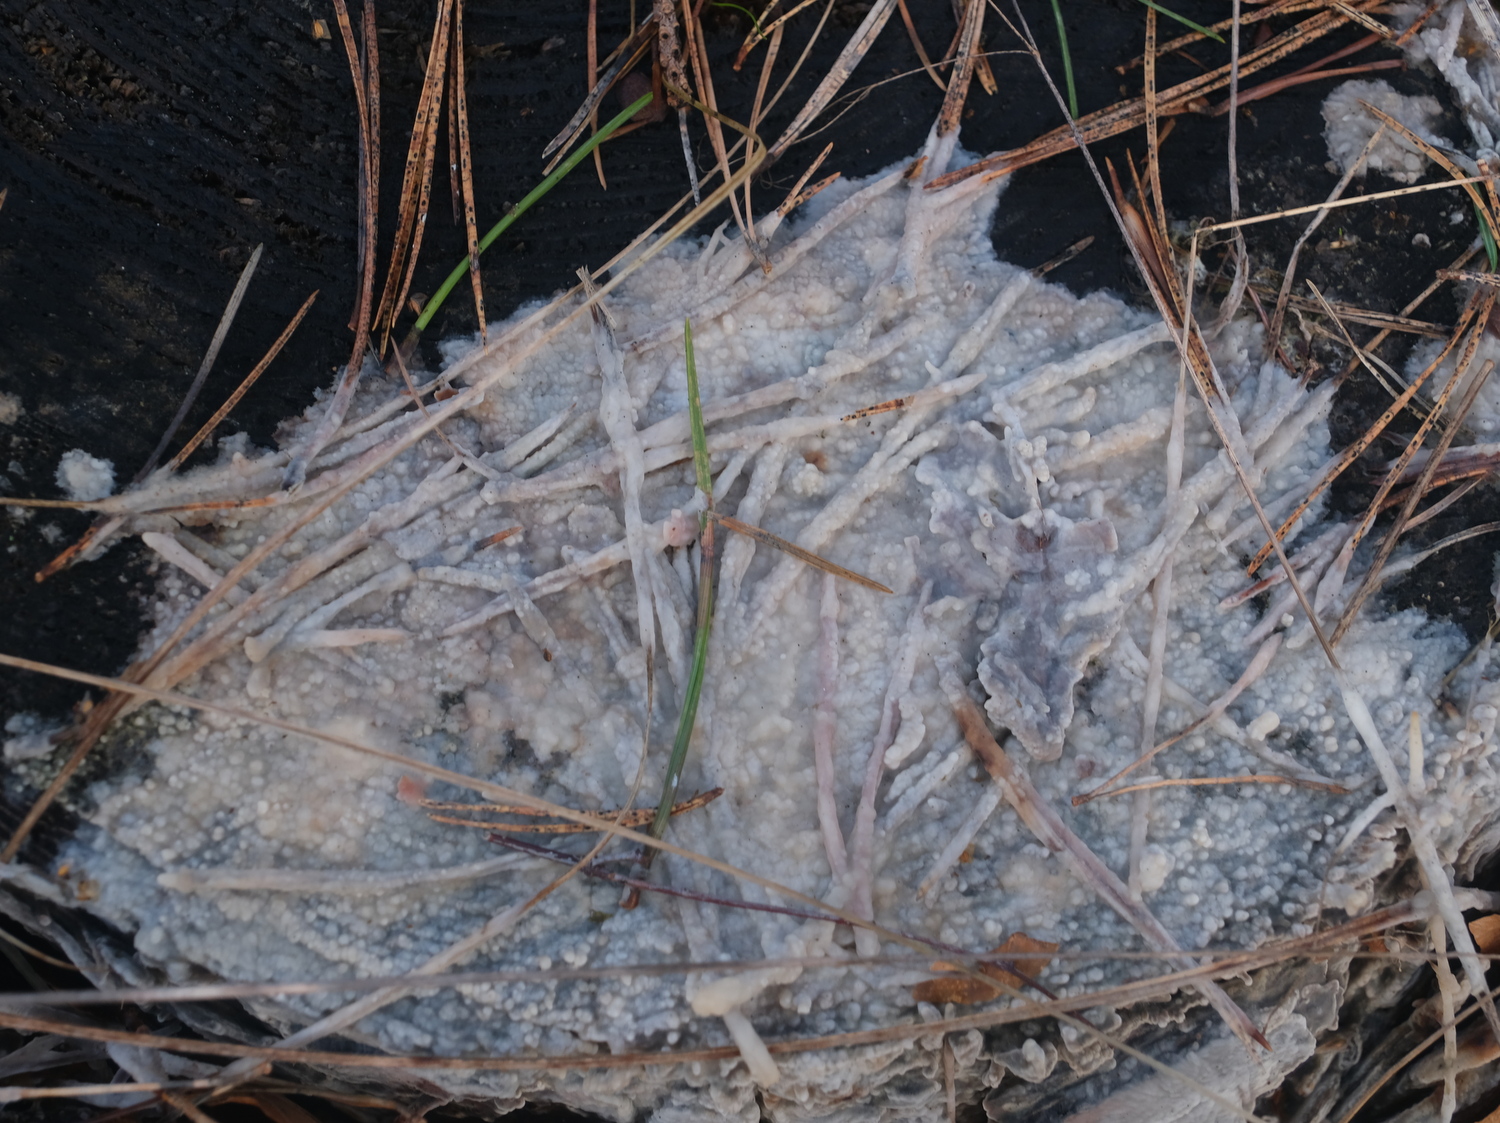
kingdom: Fungi
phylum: Basidiomycota
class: Agaricomycetes
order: Polyporales
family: Phanerochaetaceae
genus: Phlebiopsis
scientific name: Phlebiopsis gigantea
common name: kæmpebarksvamp
